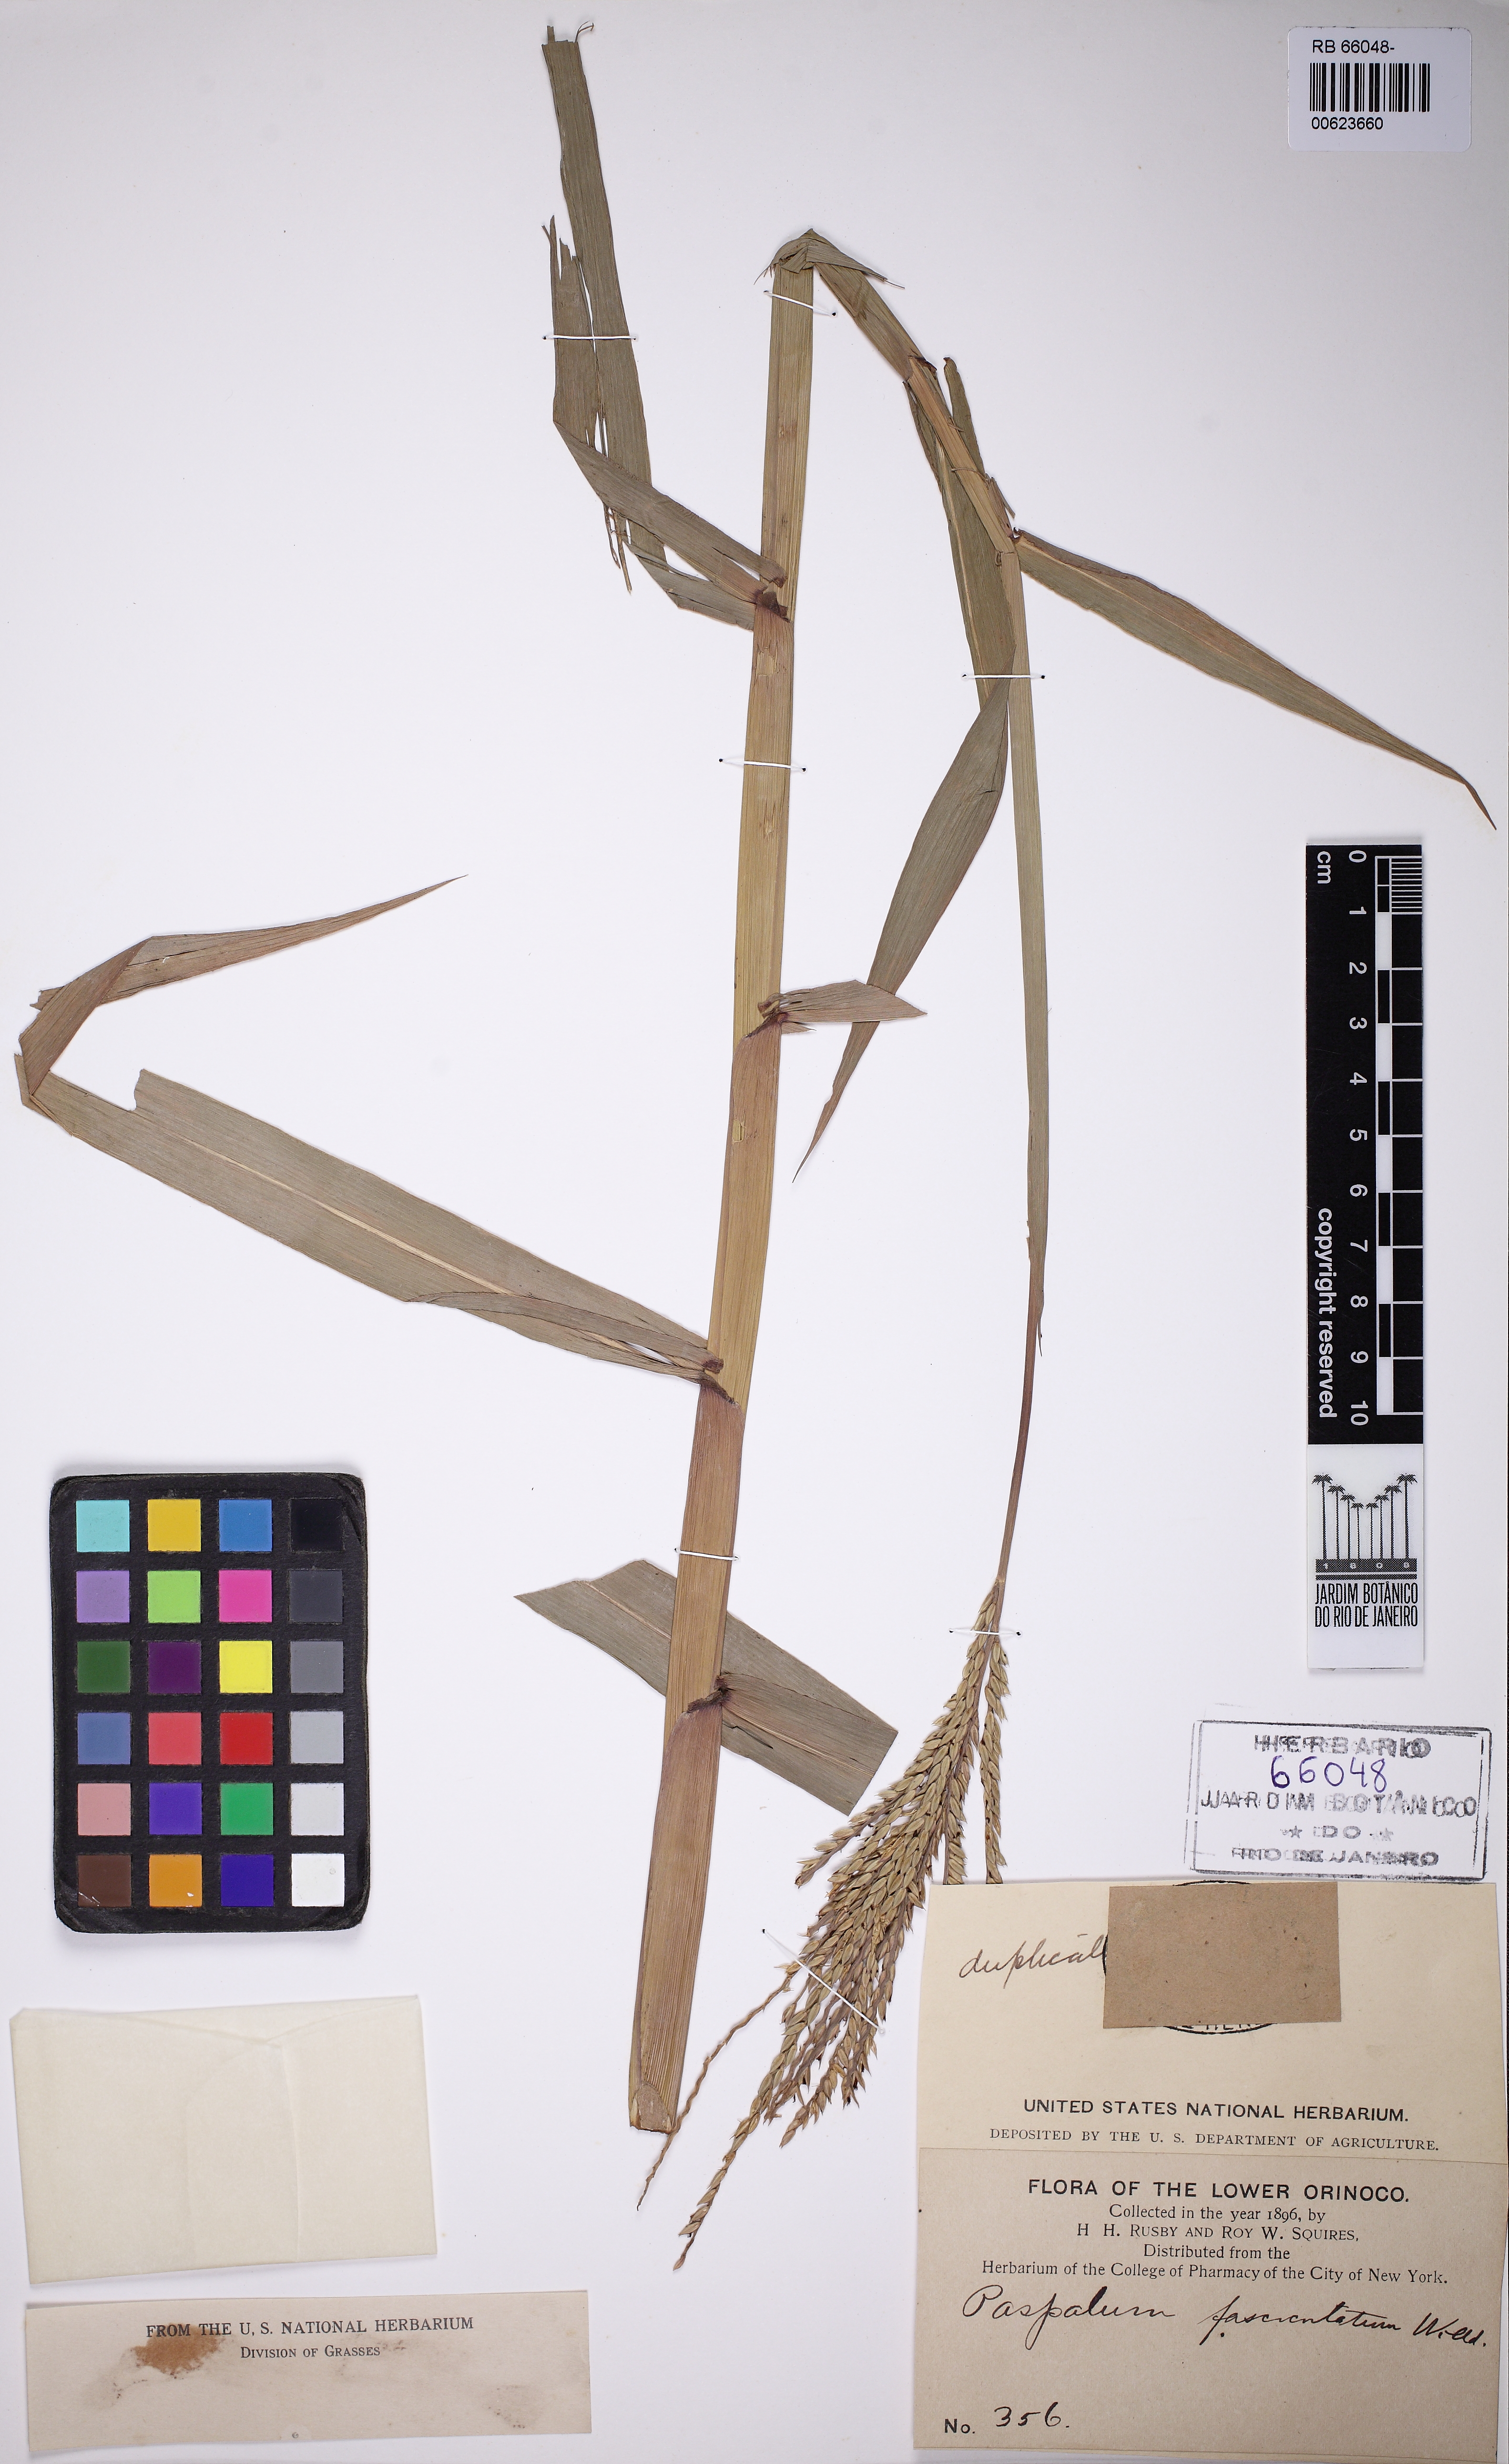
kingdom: Plantae
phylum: Tracheophyta
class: Liliopsida
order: Poales
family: Poaceae
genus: Paspalum
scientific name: Paspalum fasciculatum
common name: Bamboo grass
